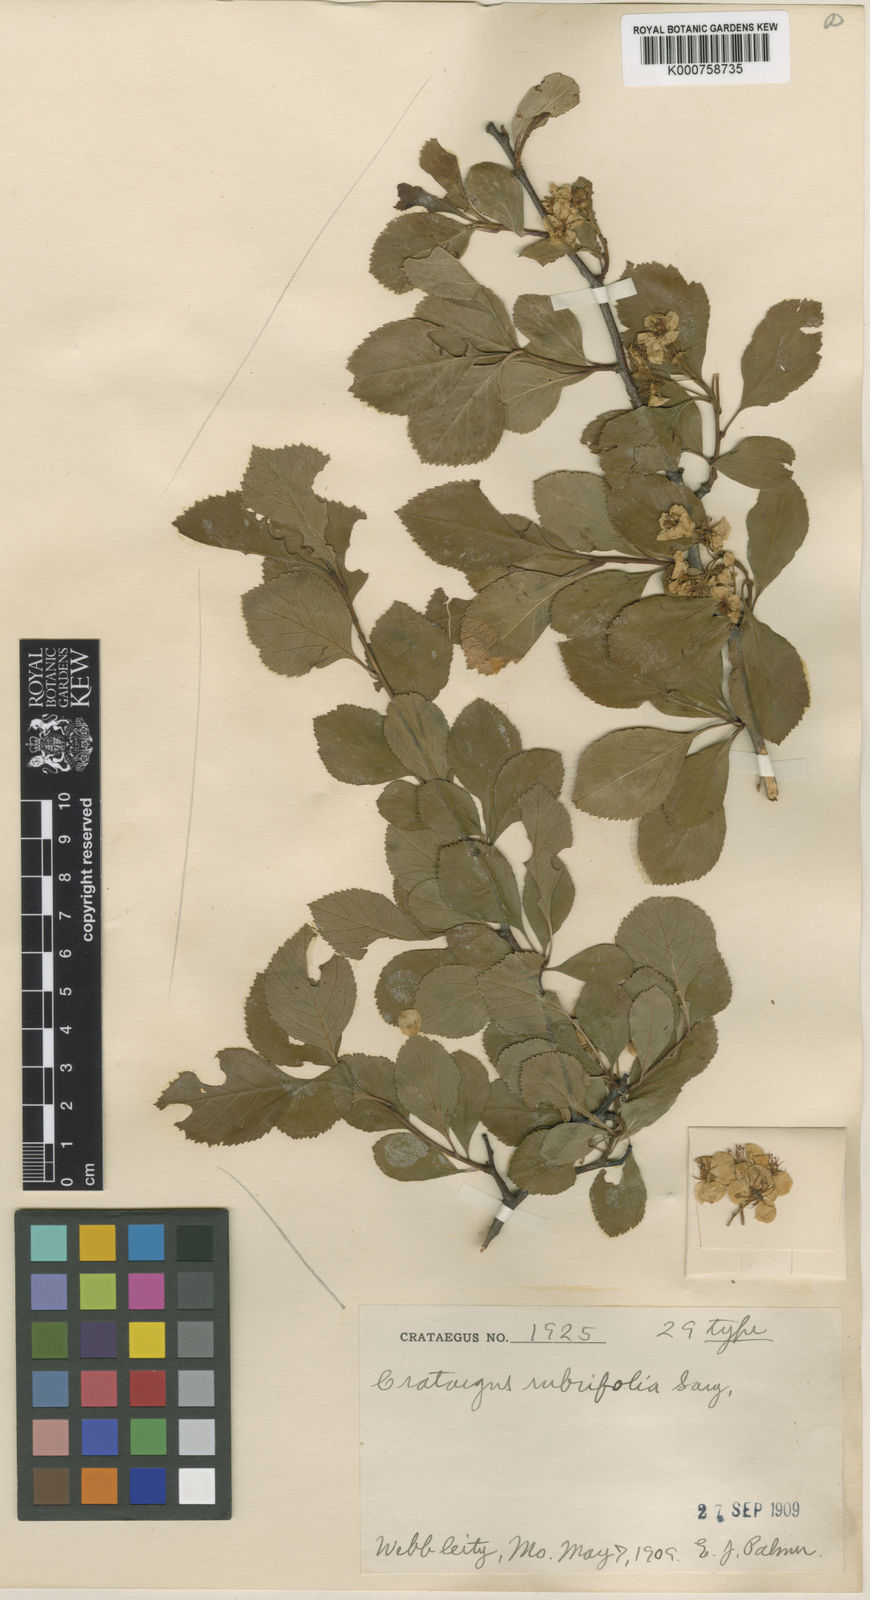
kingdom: Plantae
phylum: Tracheophyta
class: Magnoliopsida
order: Rosales
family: Rosaceae
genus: Crataegus
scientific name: Crataegus rubrifolia
